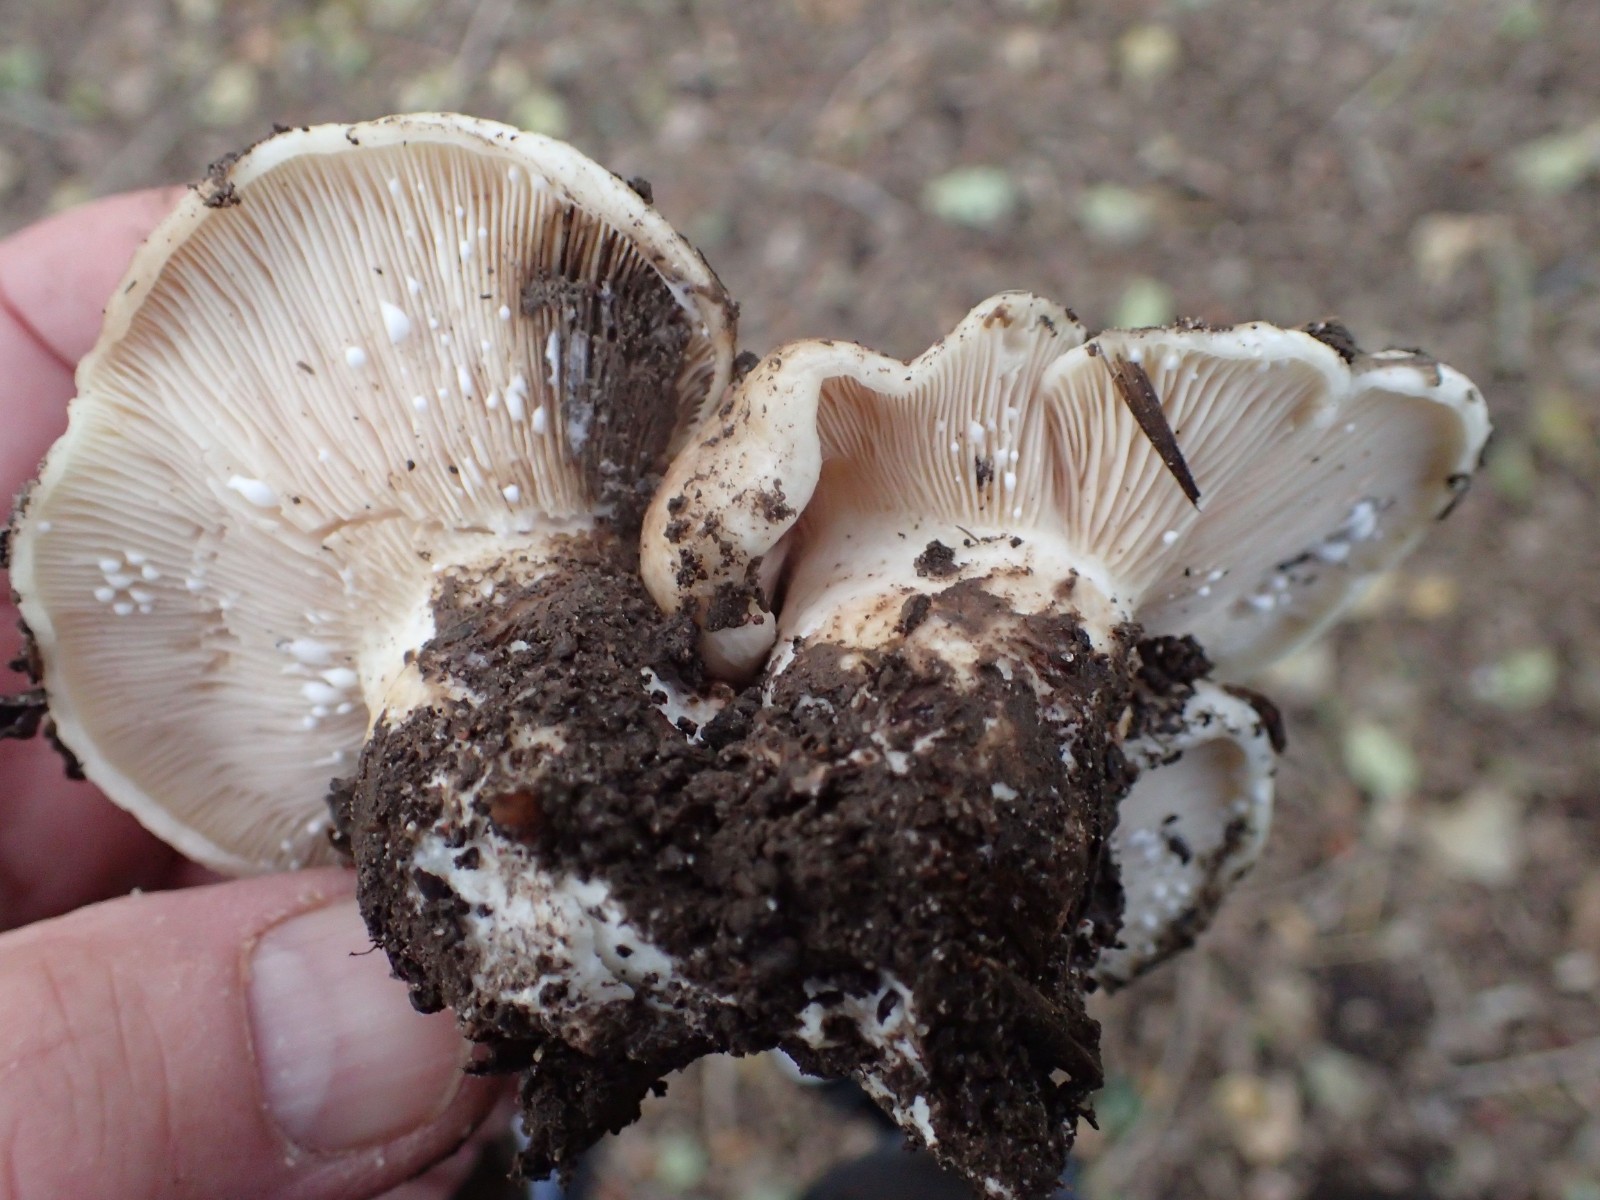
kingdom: Fungi
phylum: Basidiomycota
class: Agaricomycetes
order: Russulales
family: Russulaceae
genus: Lactarius
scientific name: Lactarius controversus
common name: rosabladet mælkehat
